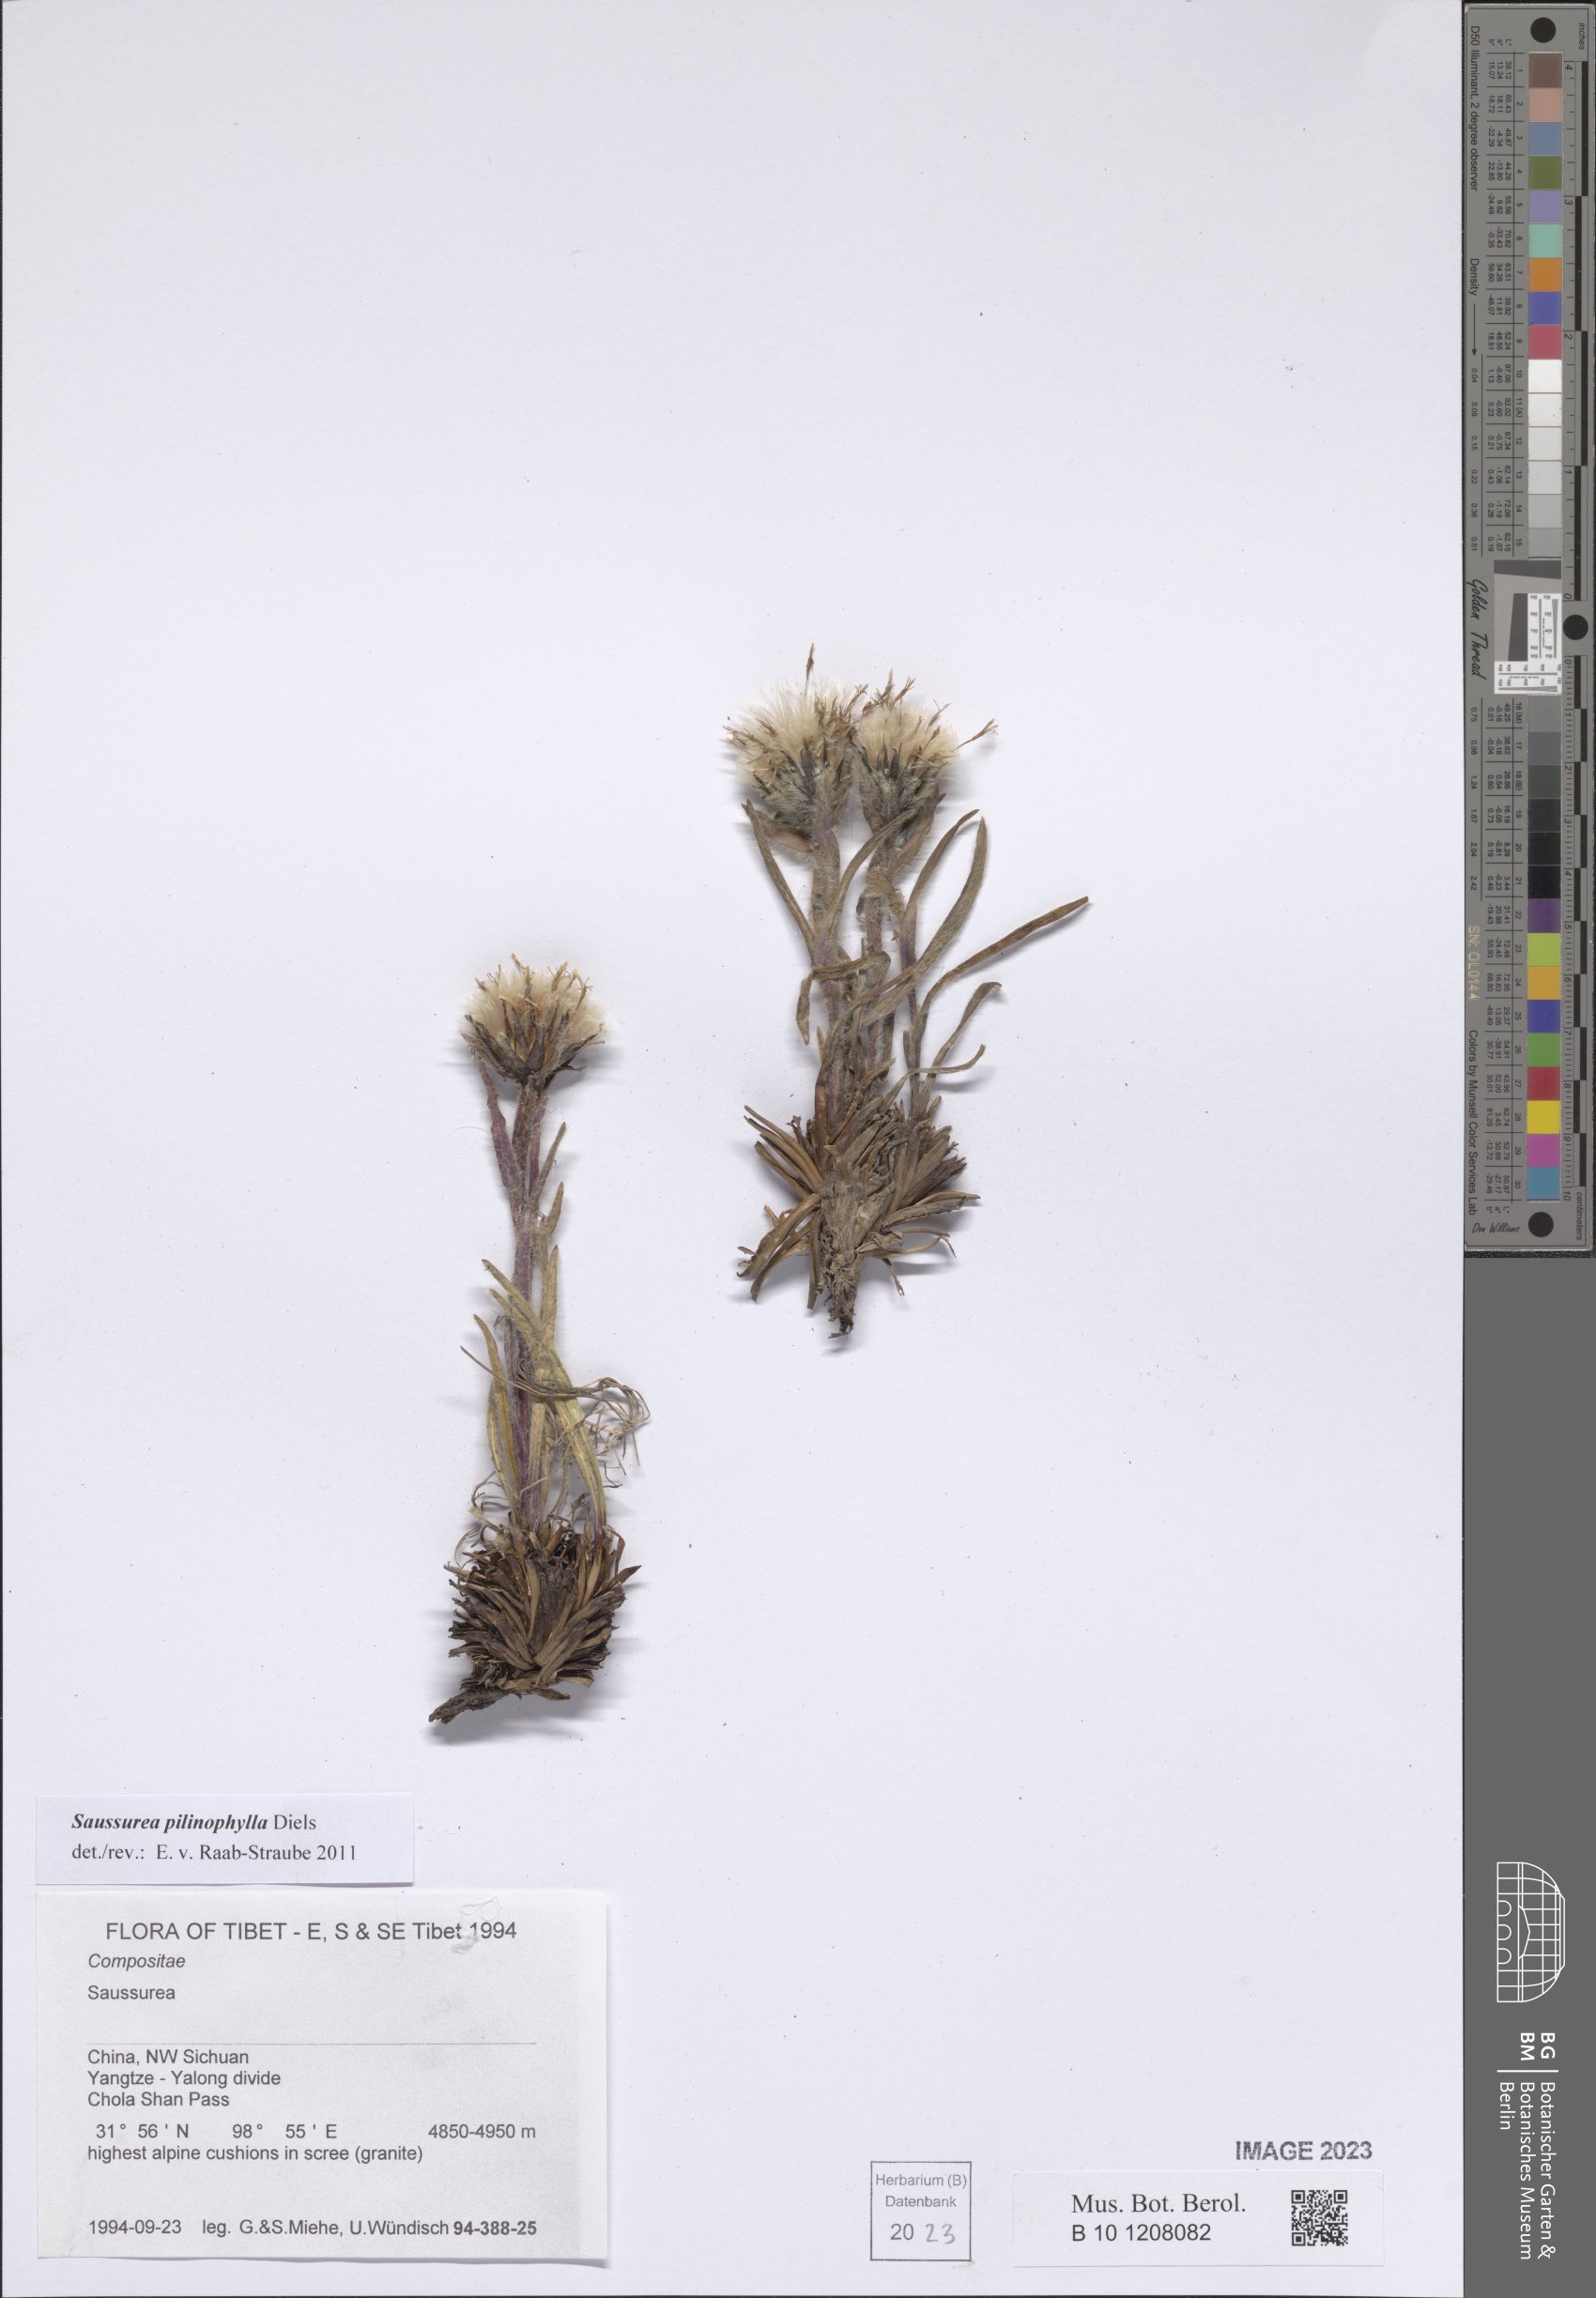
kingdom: Plantae
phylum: Tracheophyta
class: Magnoliopsida
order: Asterales
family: Asteraceae
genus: Saussurea
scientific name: Saussurea pilinophylla
